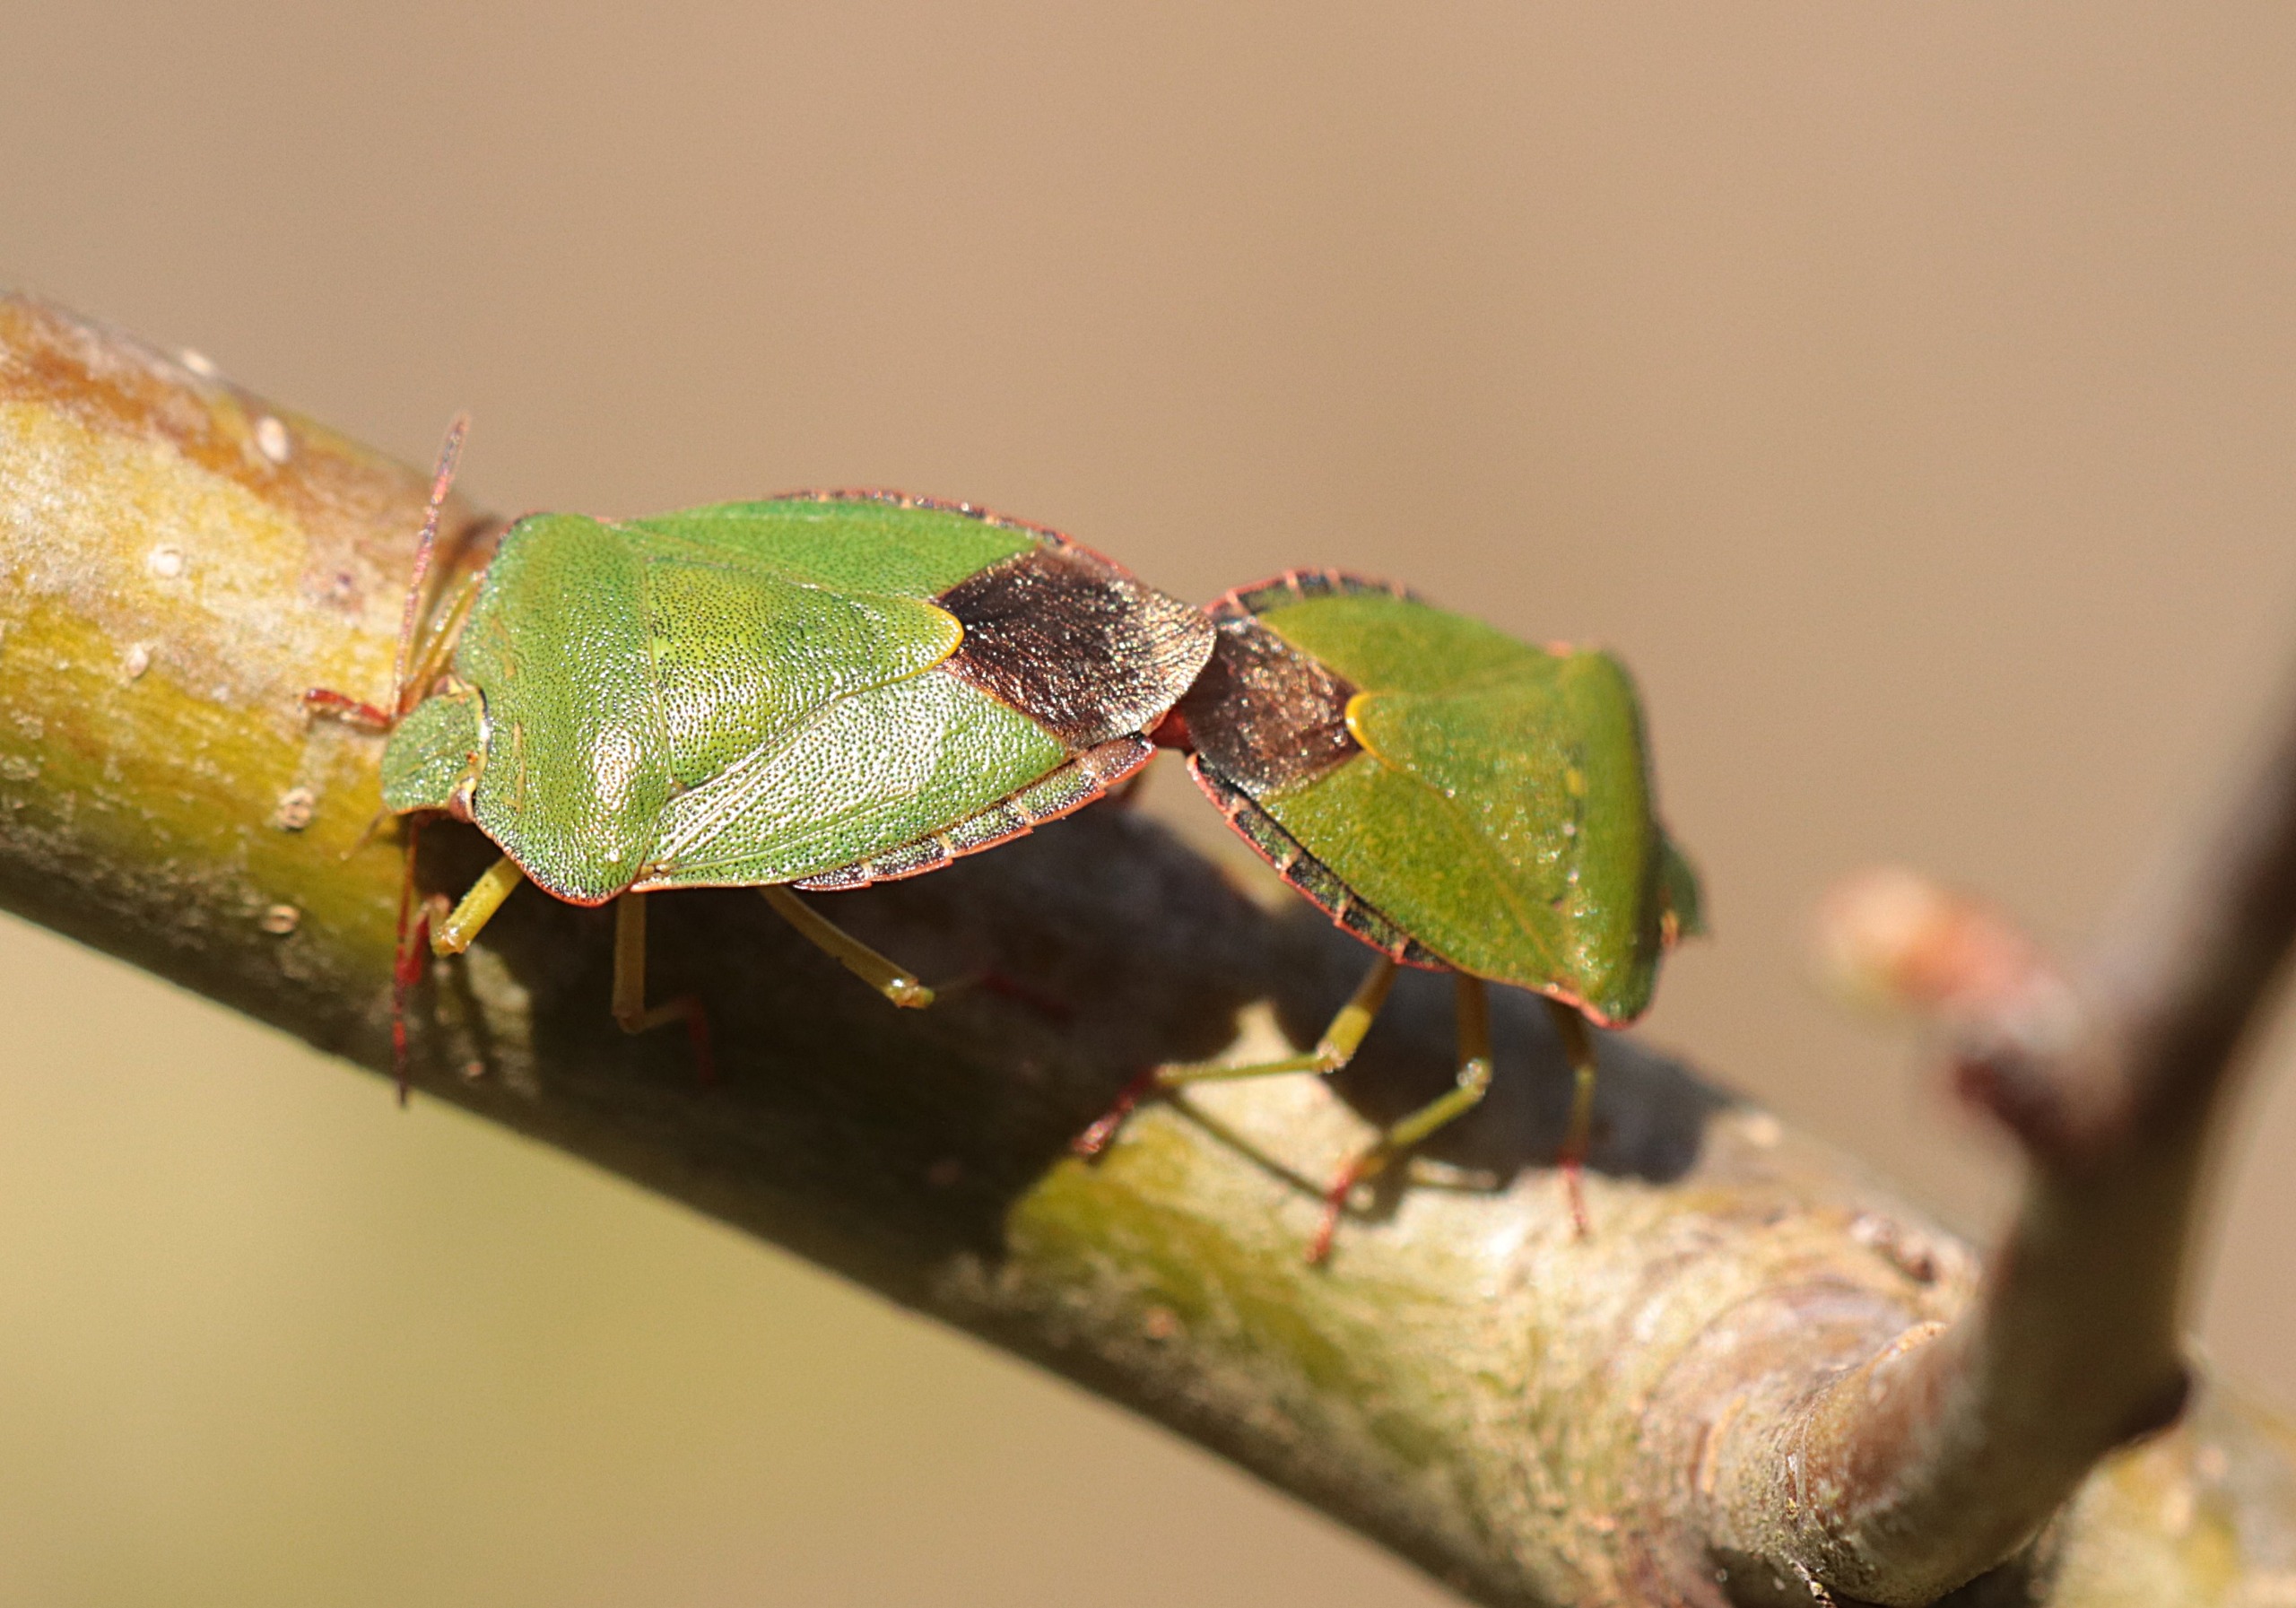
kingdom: Animalia
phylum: Arthropoda
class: Insecta
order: Hemiptera
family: Pentatomidae
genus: Palomena
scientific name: Palomena prasina
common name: Grøn bredtæge
